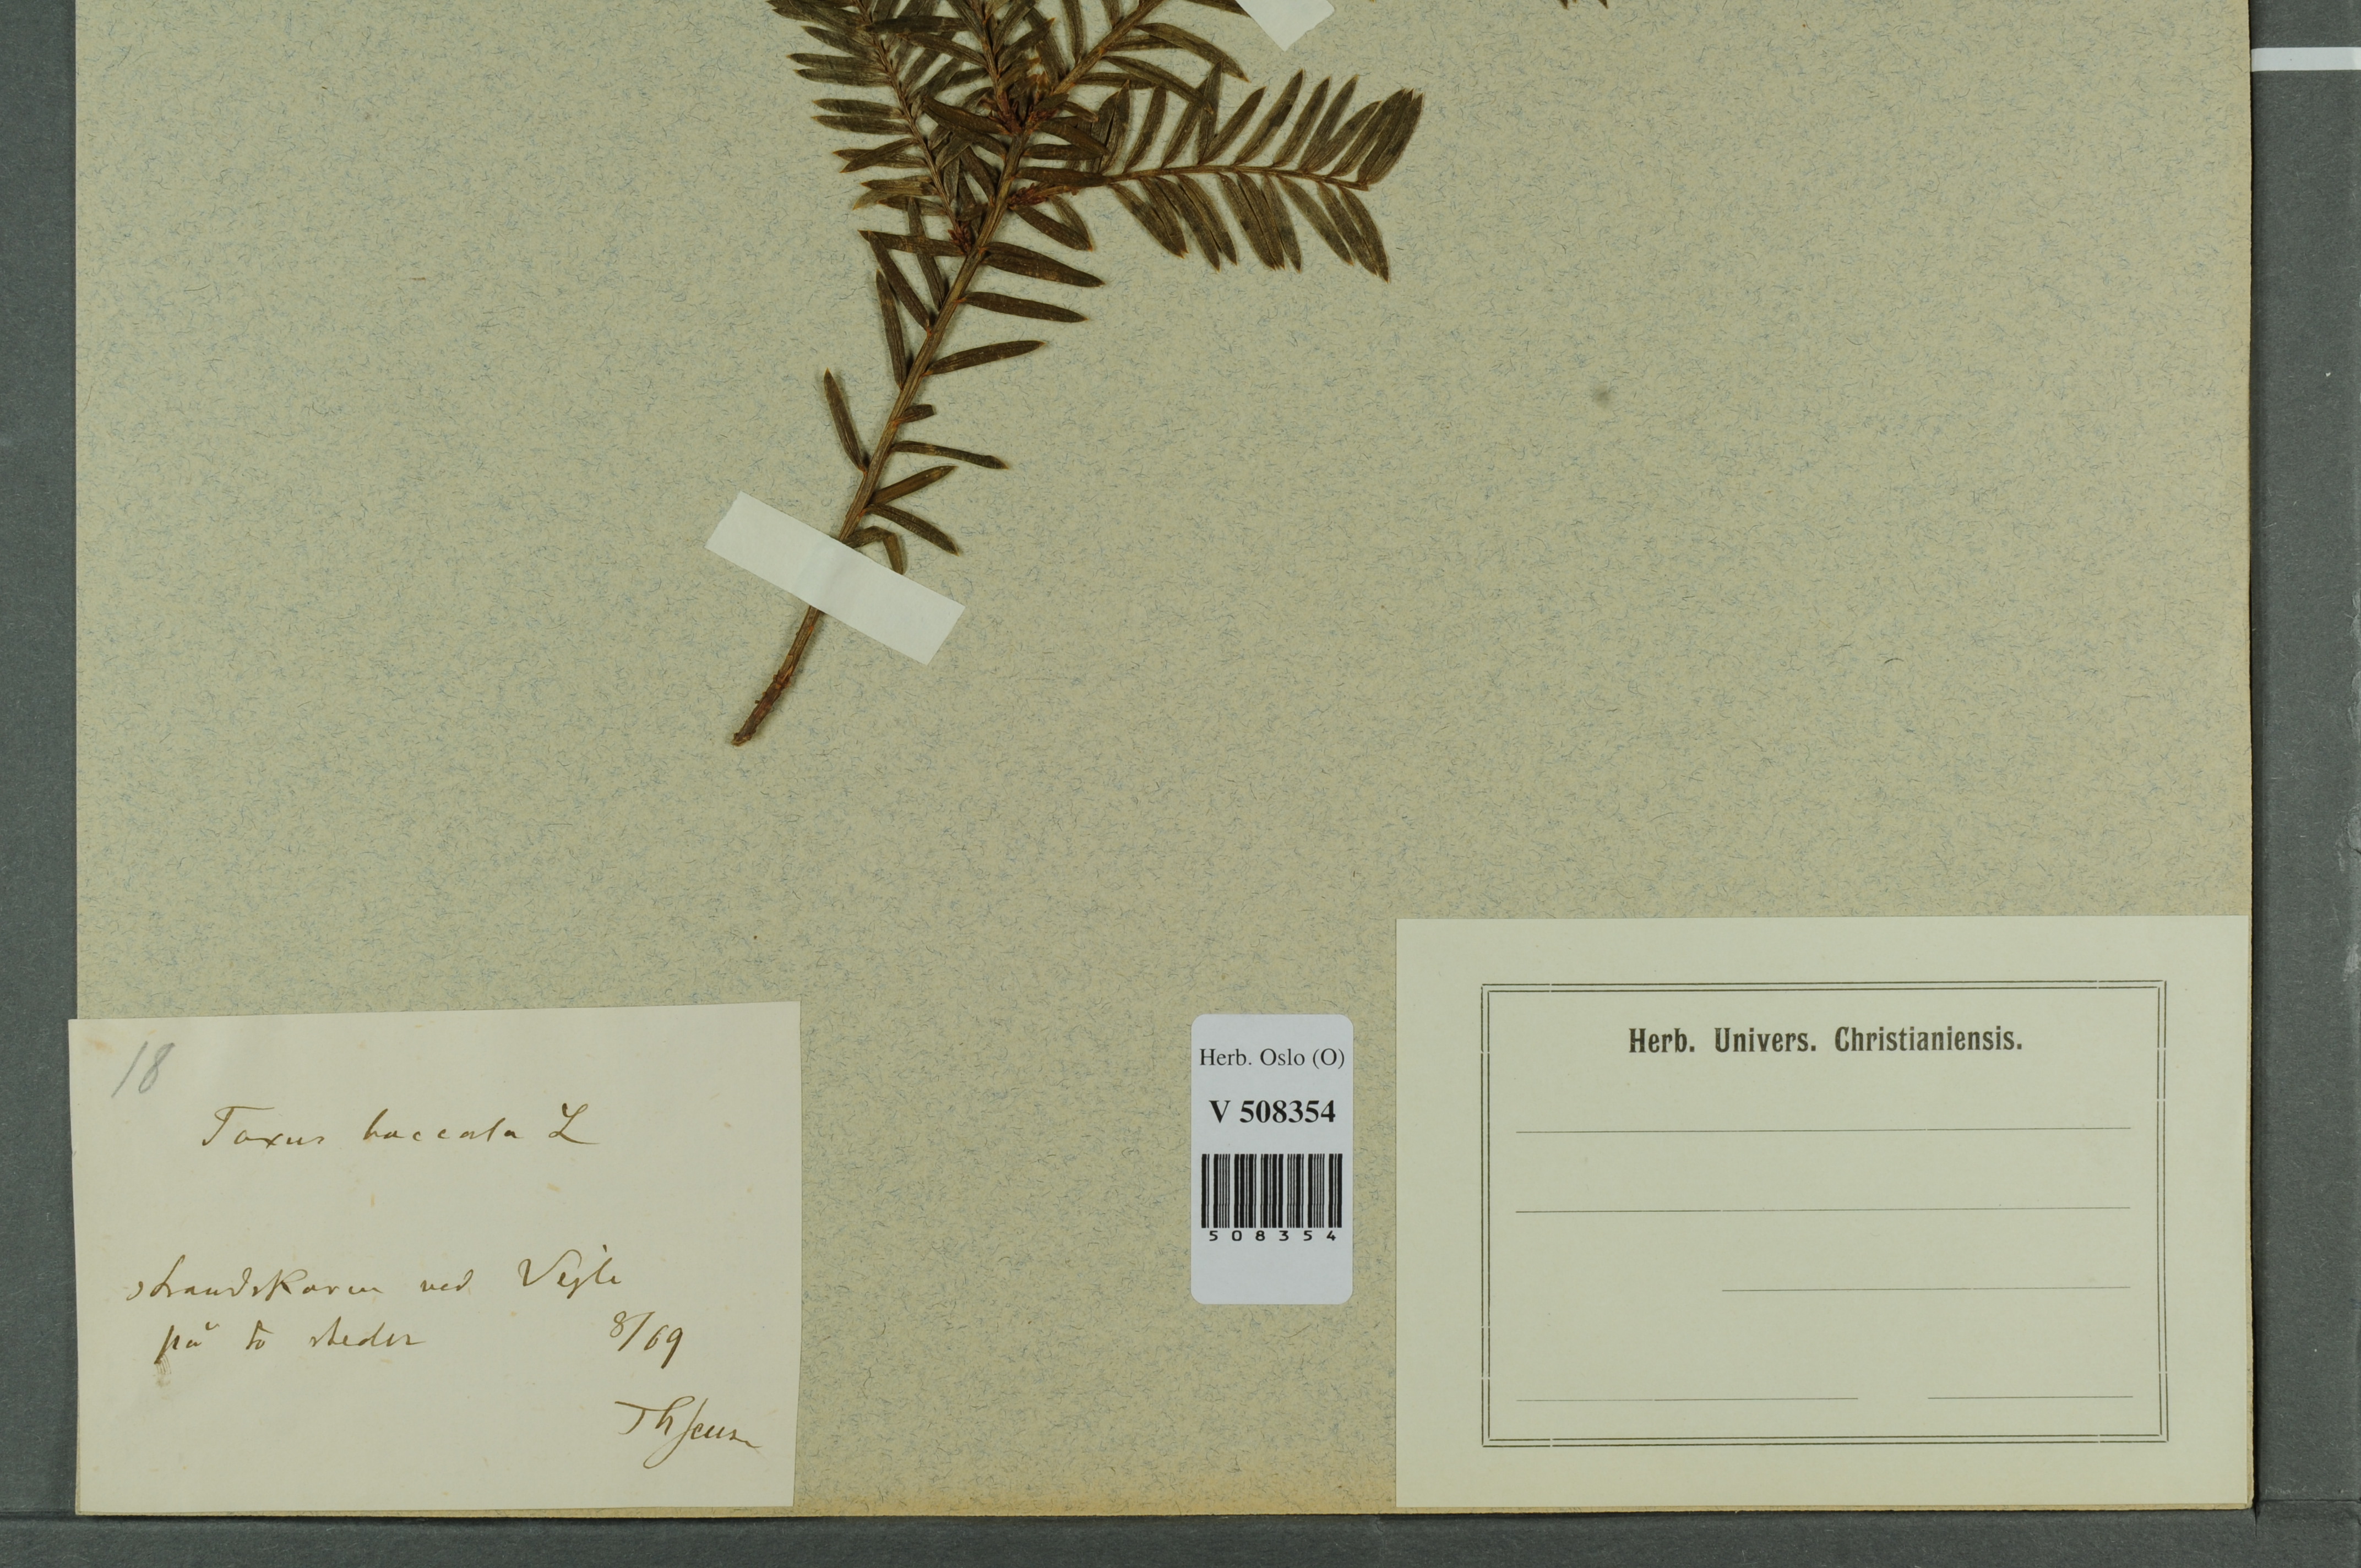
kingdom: Plantae
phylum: Tracheophyta
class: Pinopsida
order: Pinales
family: Taxaceae
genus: Taxus
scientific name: Taxus baccata
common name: Yew
